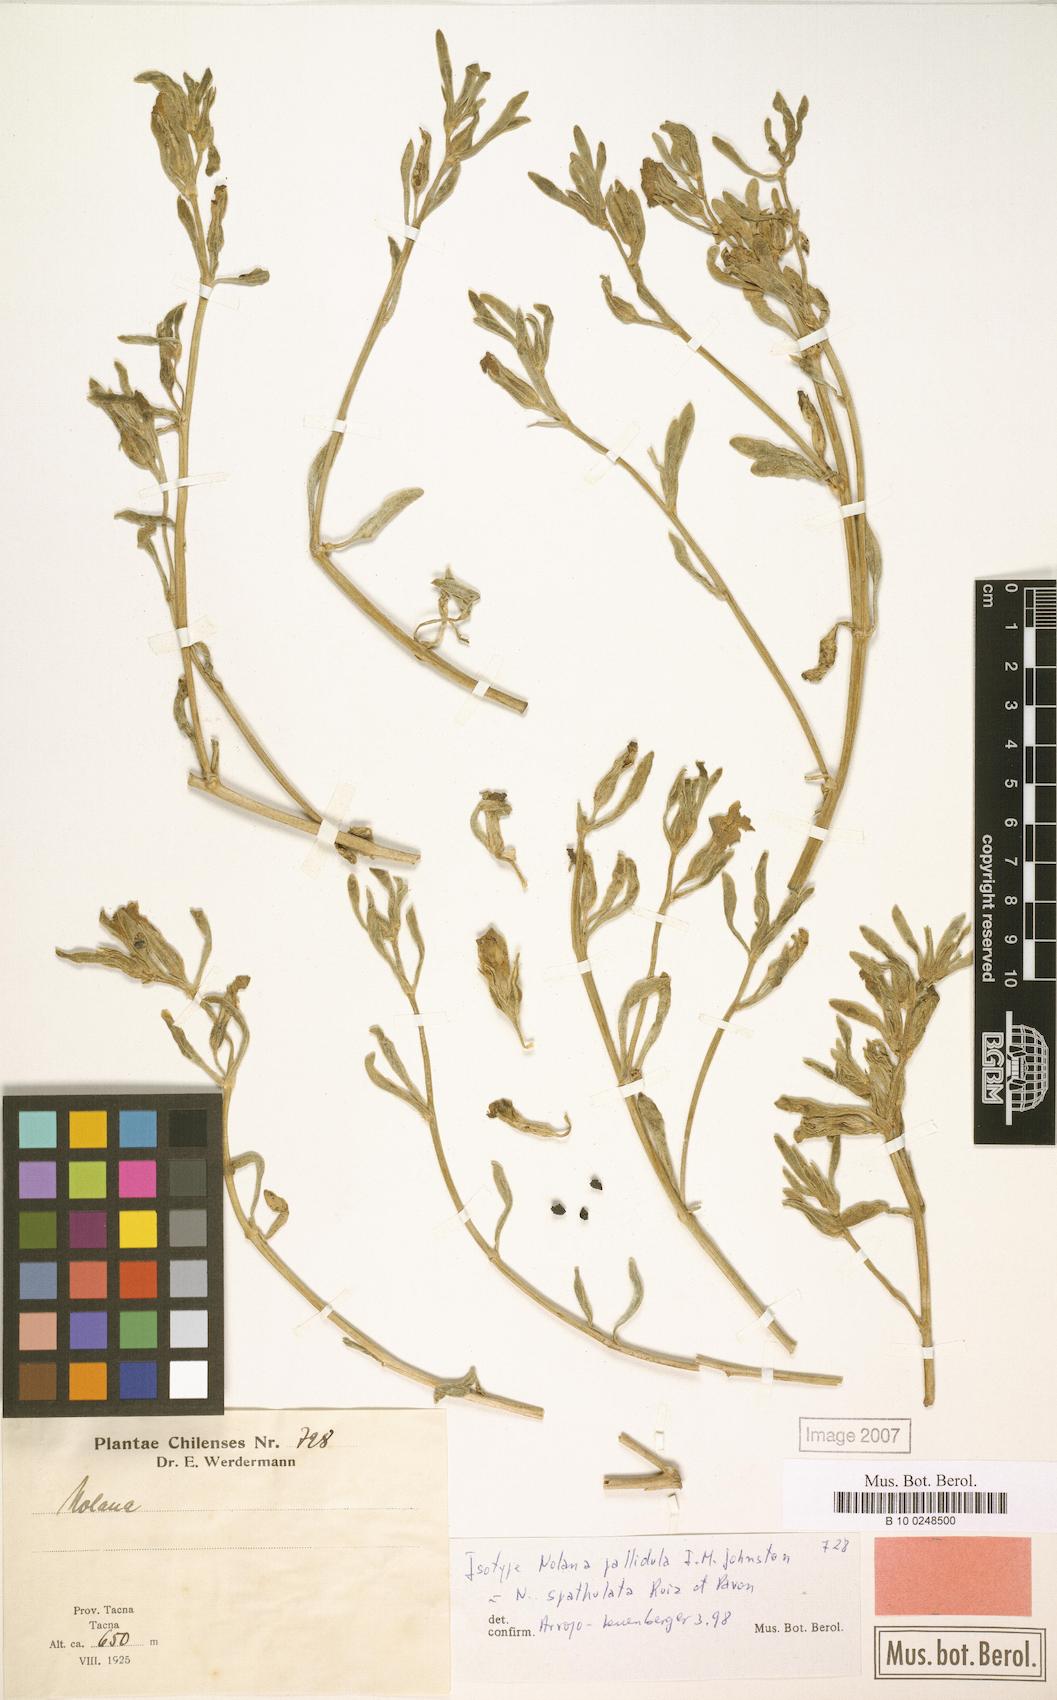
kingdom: Plantae
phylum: Tracheophyta
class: Magnoliopsida
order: Solanales
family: Solanaceae
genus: Nolana
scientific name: Nolana humifusa
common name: Trailing chilean-bellflower
